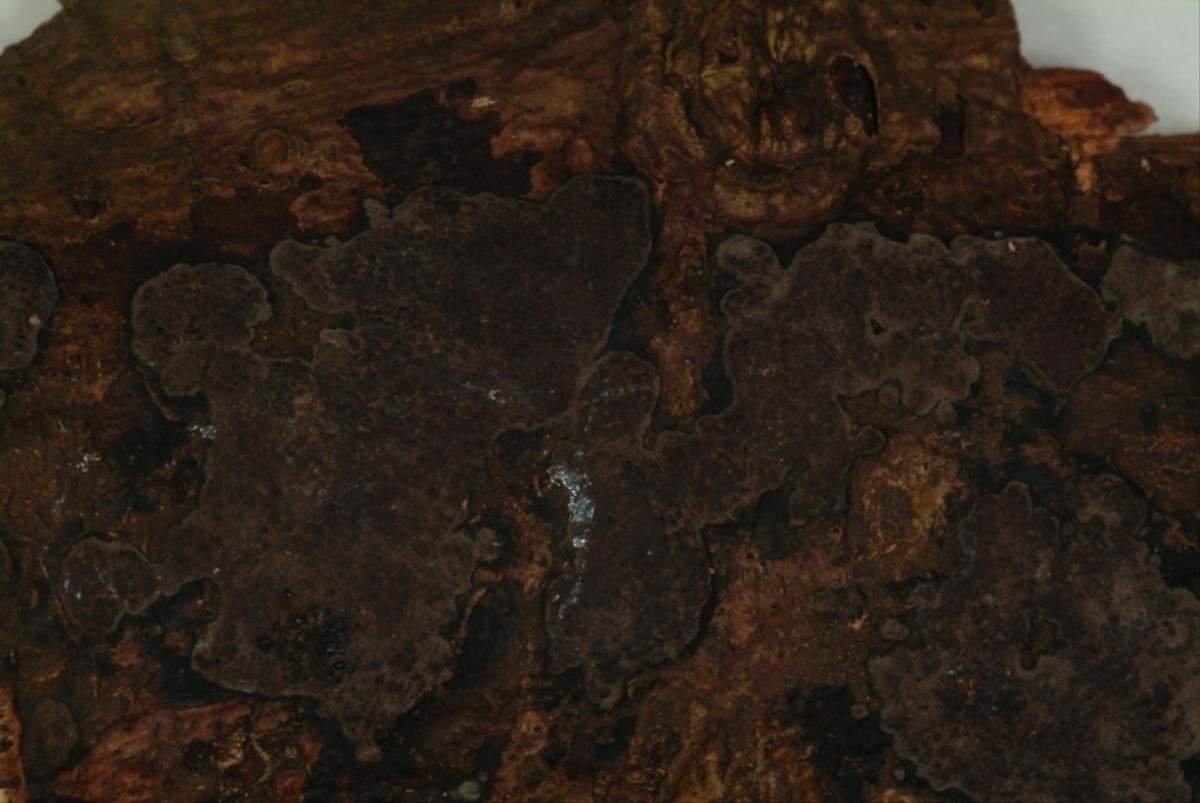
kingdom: Fungi
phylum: Ascomycota
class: Sordariomycetes
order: Xylariales
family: Hypoxylaceae
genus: Hypoxylon
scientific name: Hypoxylon
